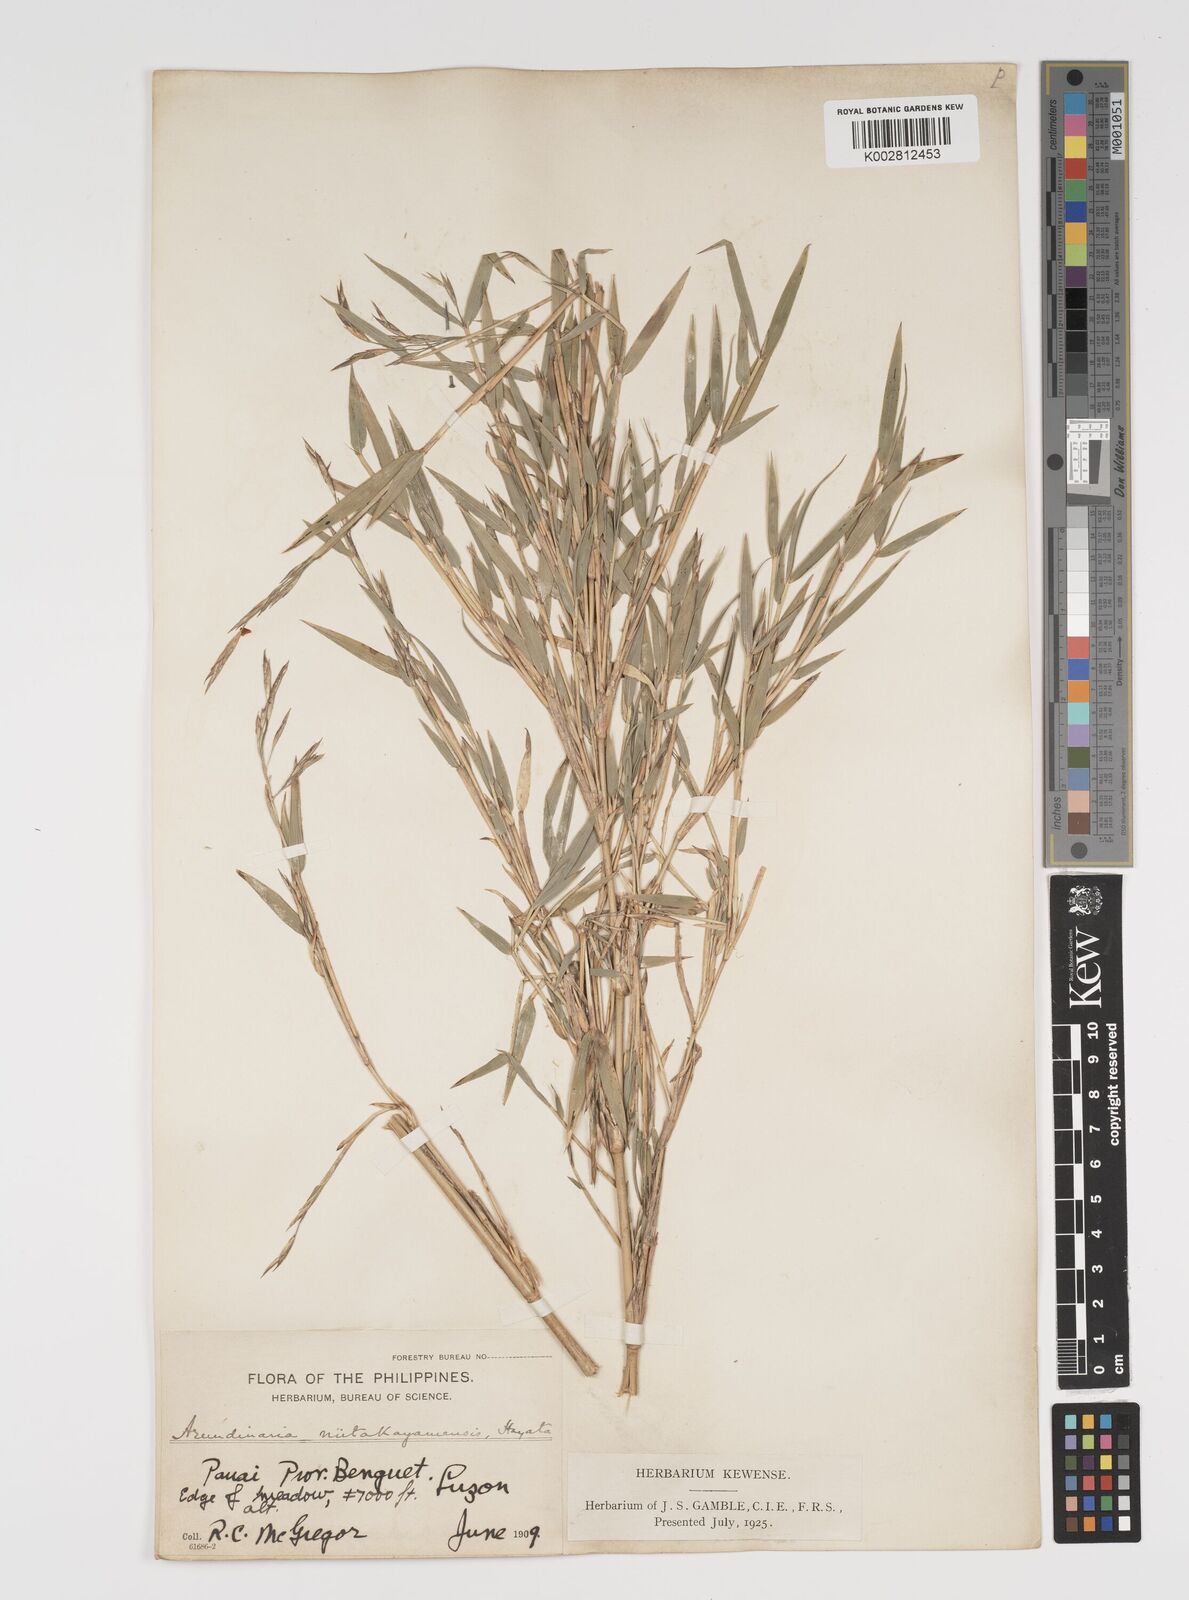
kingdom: Plantae
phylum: Tracheophyta
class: Liliopsida
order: Poales
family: Poaceae
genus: Yushania
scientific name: Yushania niitakayamensis
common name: Yushan cane
